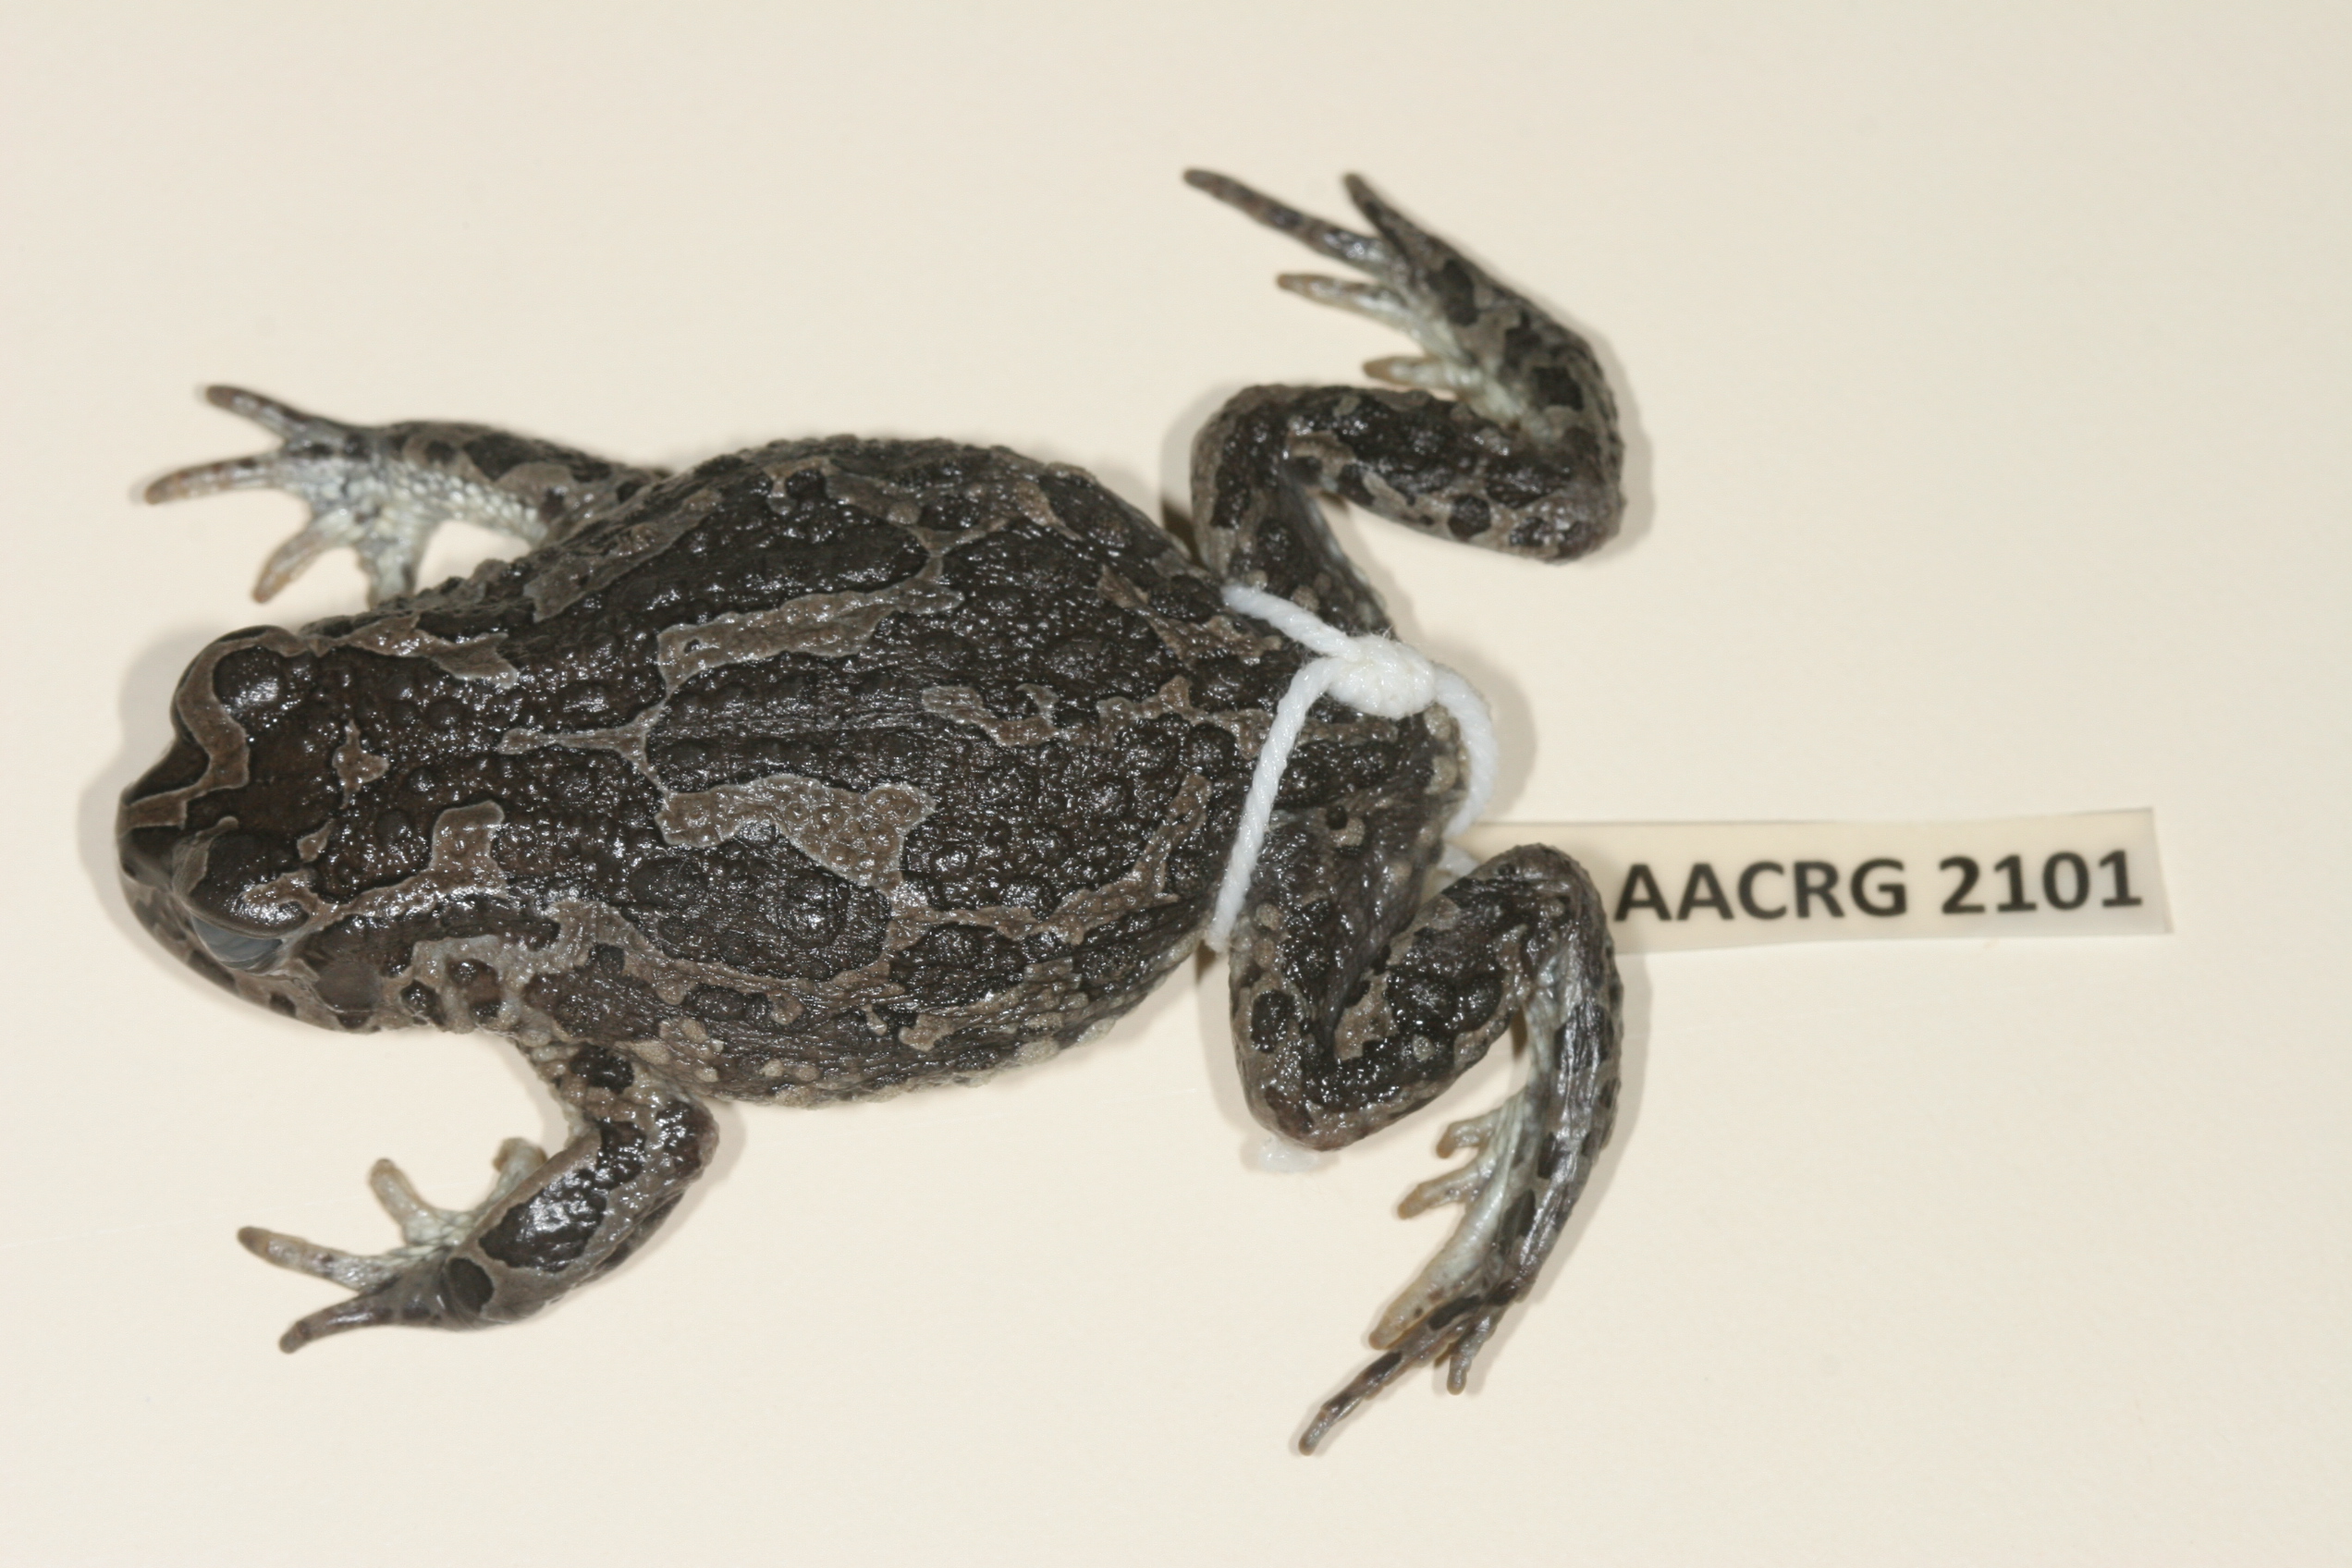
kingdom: Animalia
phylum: Chordata
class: Amphibia
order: Anura
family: Bufonidae
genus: Vandijkophrynus
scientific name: Vandijkophrynus gariepensis
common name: Gariep toad
